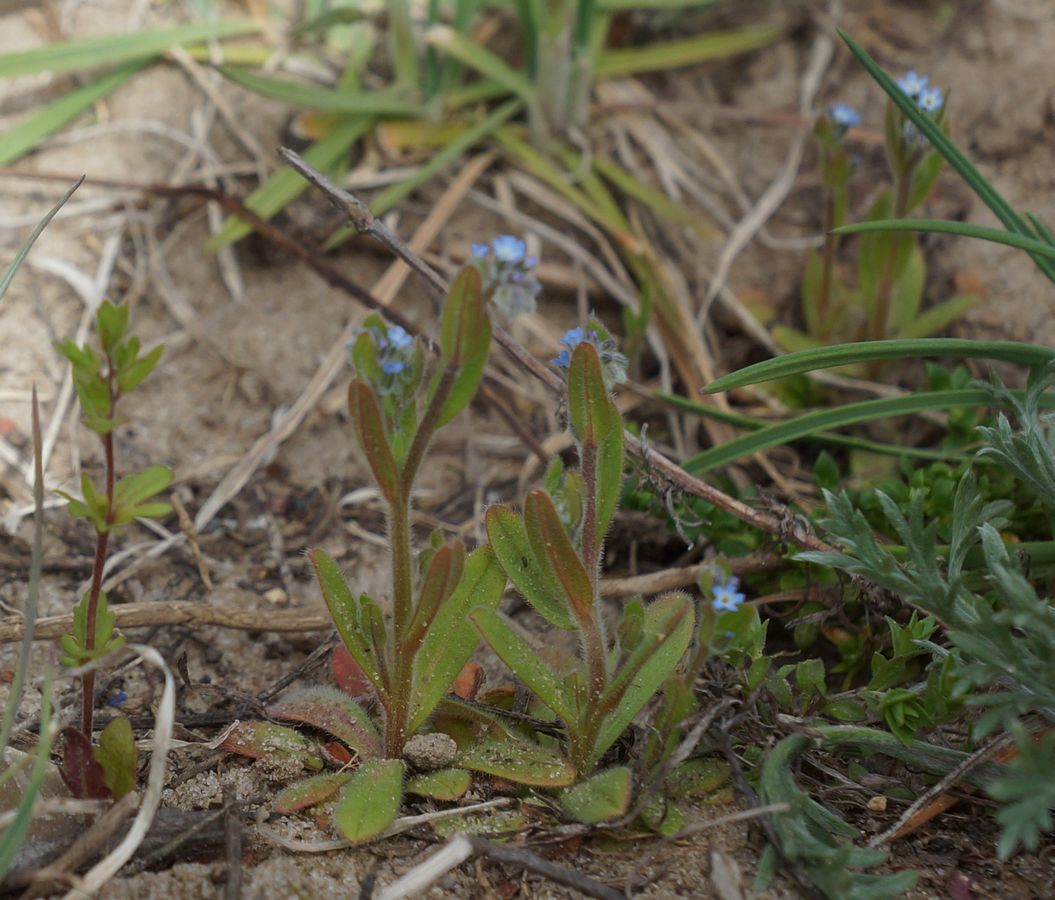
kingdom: Plantae
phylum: Tracheophyta
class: Magnoliopsida
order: Boraginales
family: Boraginaceae
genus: Myosotis
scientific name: Myosotis stricta
